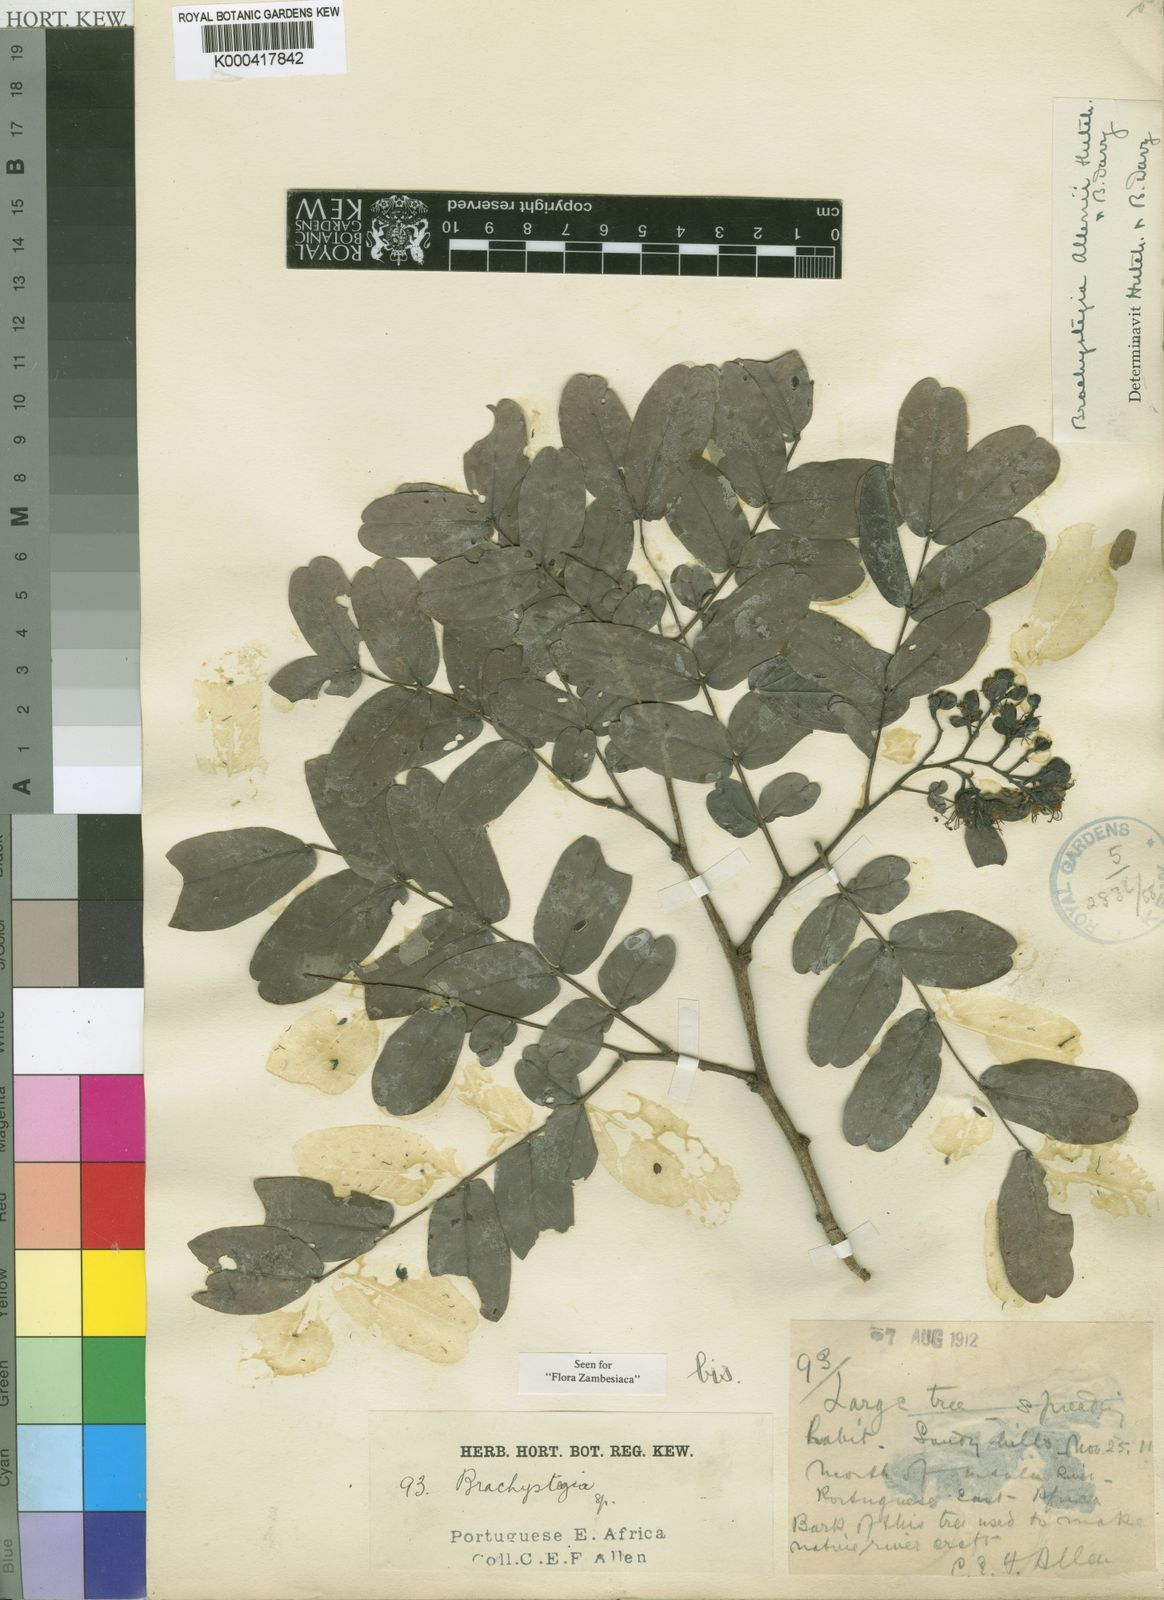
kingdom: Plantae
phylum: Tracheophyta
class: Magnoliopsida
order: Fabales
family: Fabaceae
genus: Brachystegia
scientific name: Brachystegia allenii
